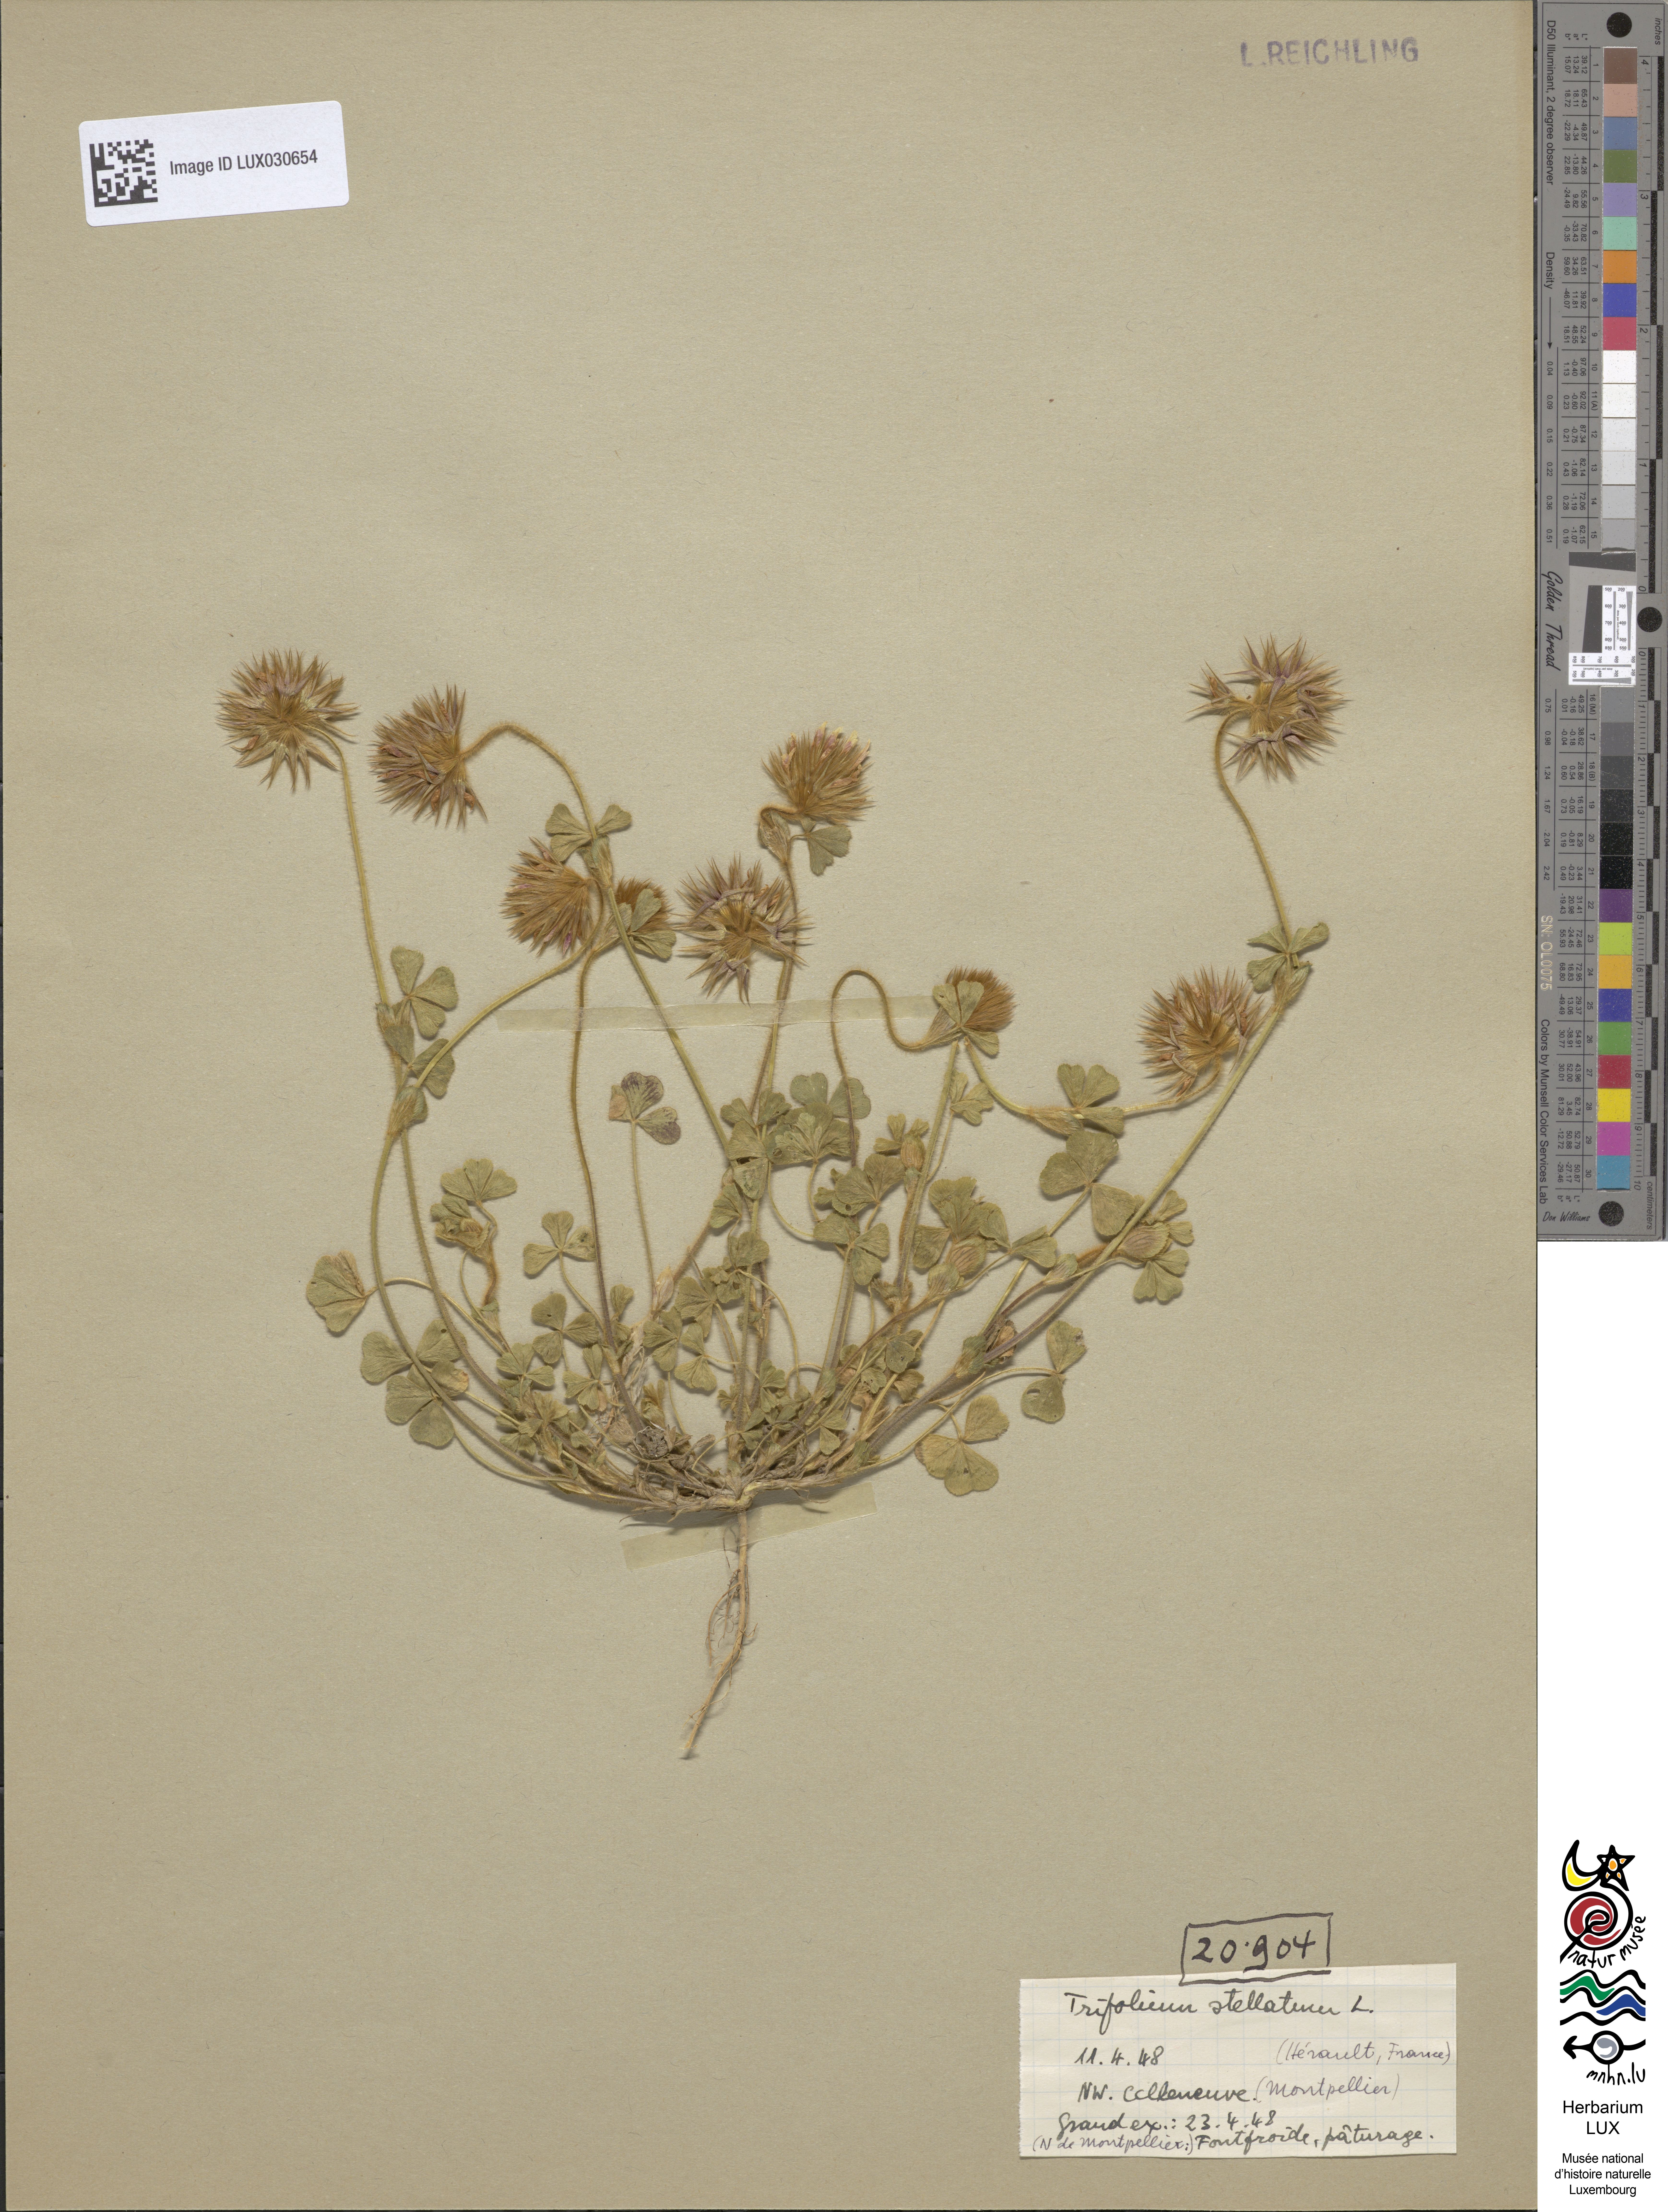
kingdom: Plantae
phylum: Tracheophyta
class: Magnoliopsida
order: Fabales
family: Fabaceae
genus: Trifolium
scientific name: Trifolium stellatum
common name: Starry clover
